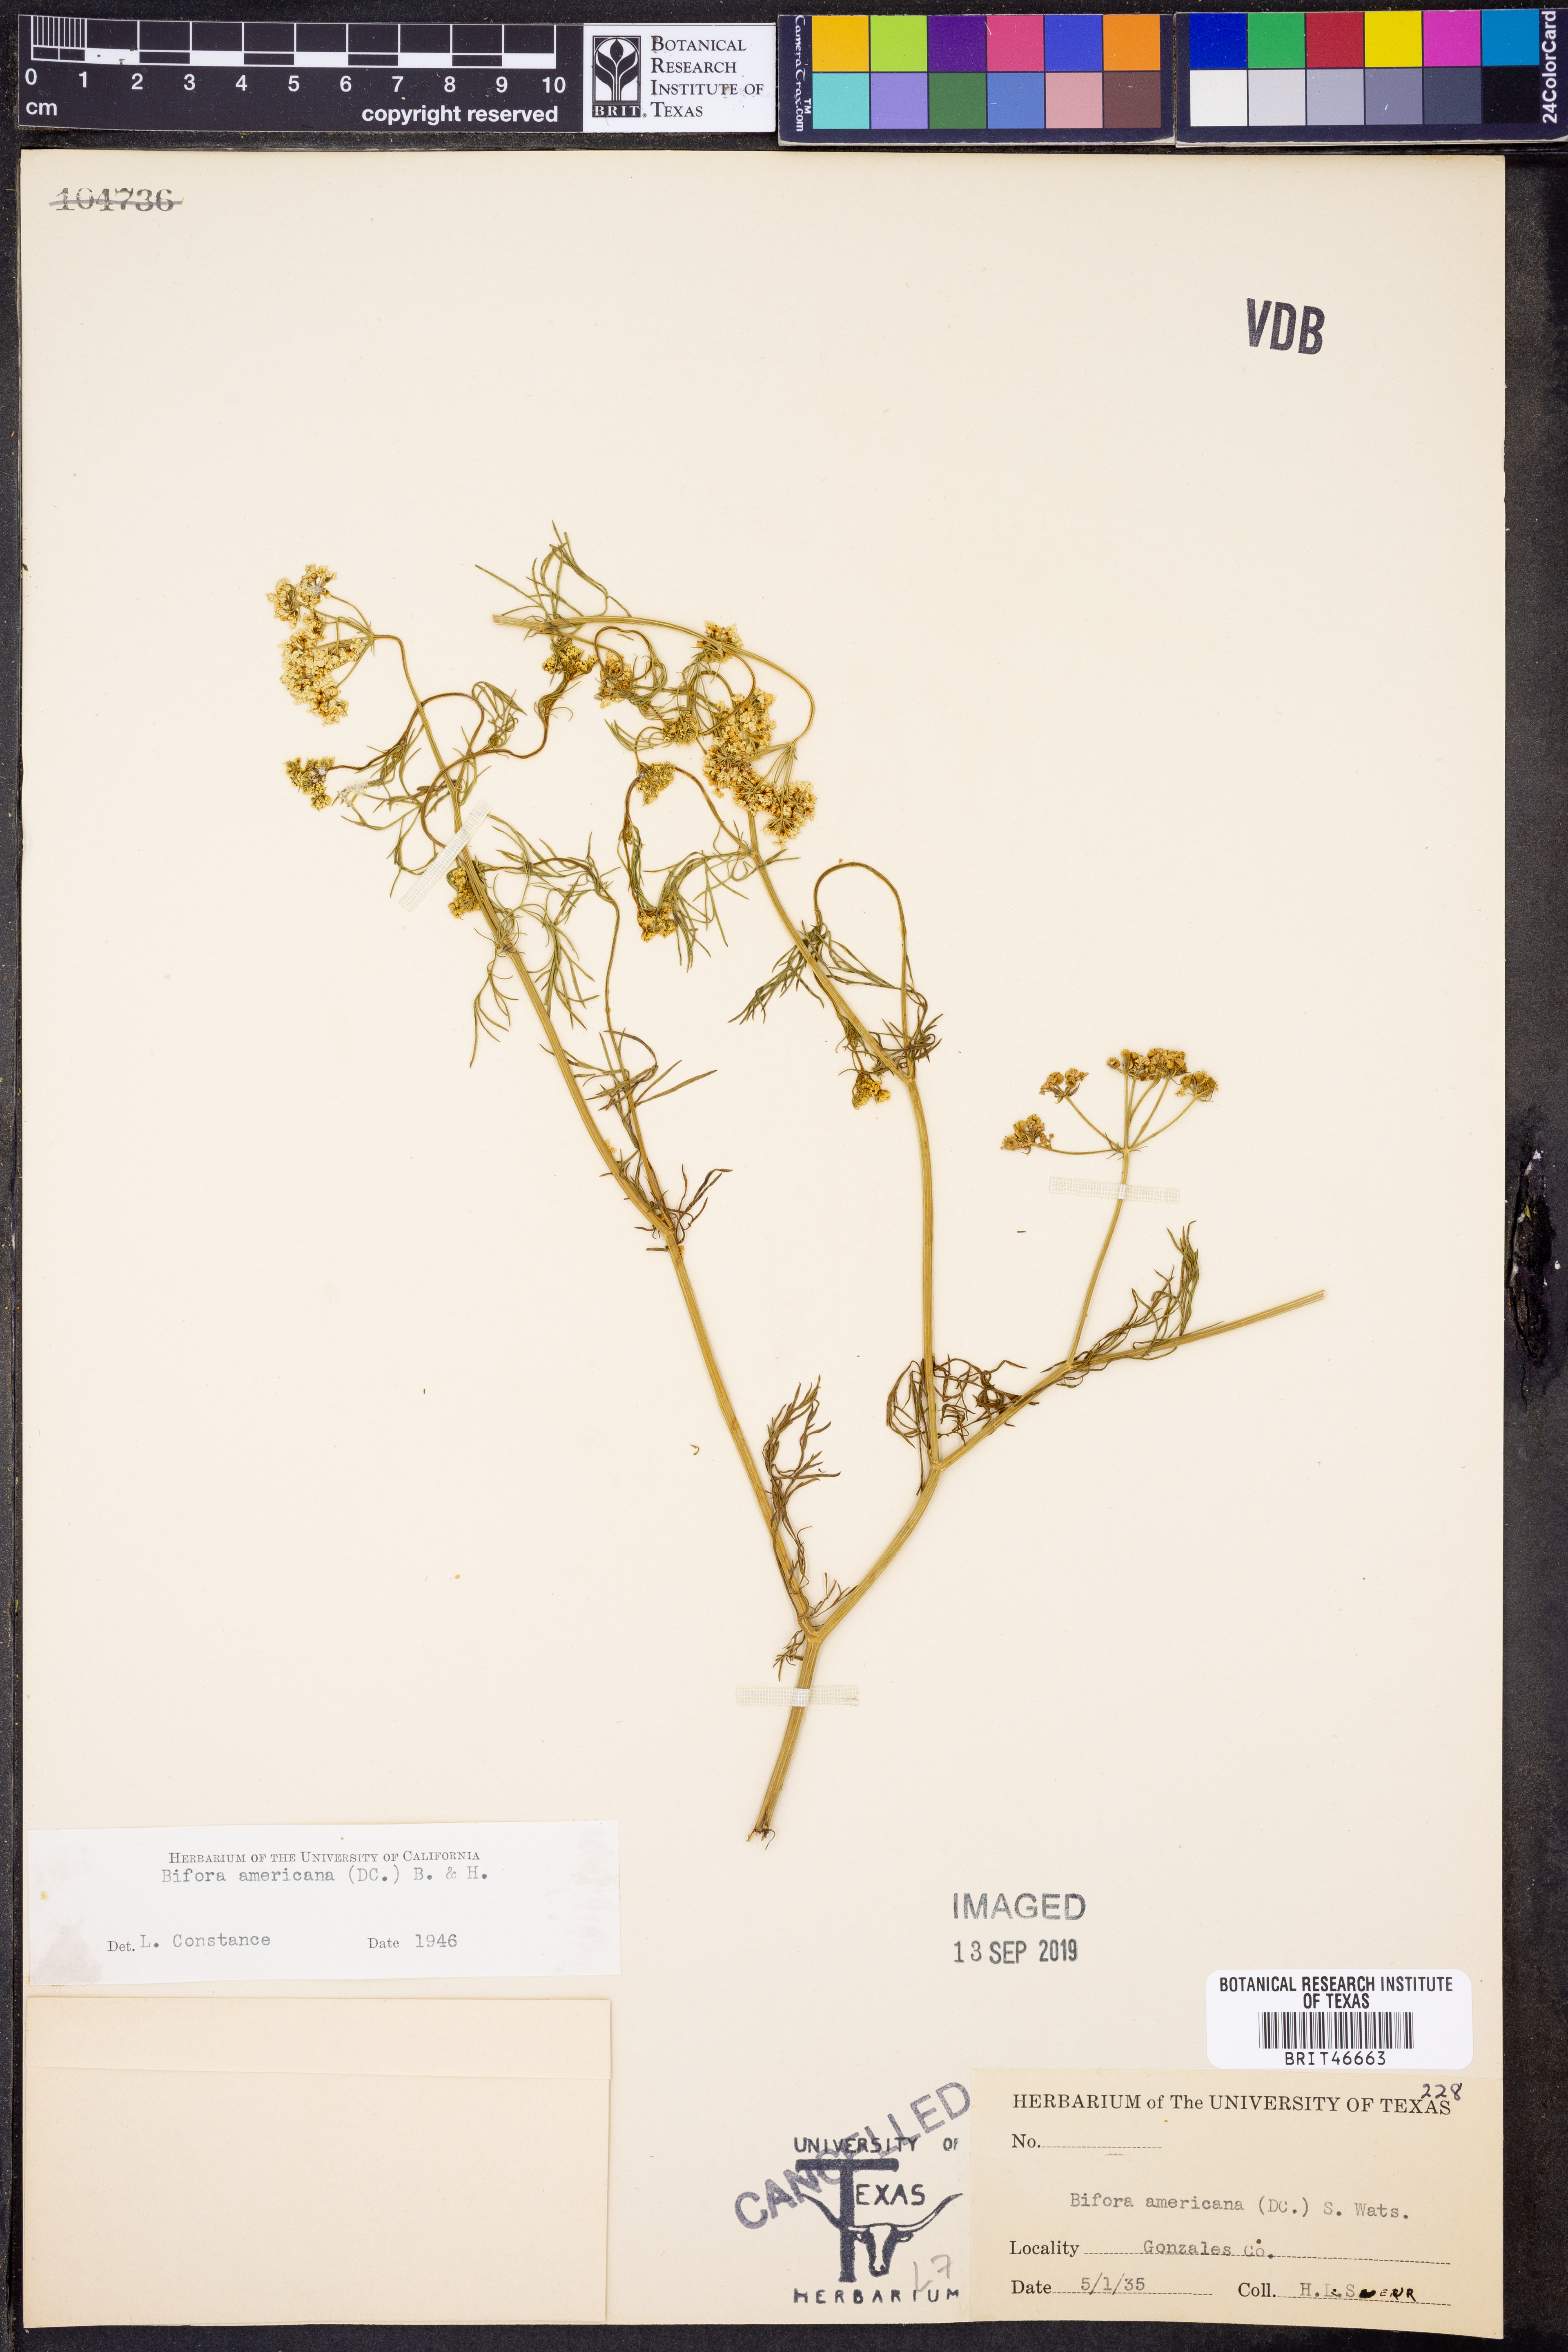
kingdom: Plantae
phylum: Tracheophyta
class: Magnoliopsida
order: Apiales
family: Apiaceae
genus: Atrema
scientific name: Atrema americanum
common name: Prairie-bishop
